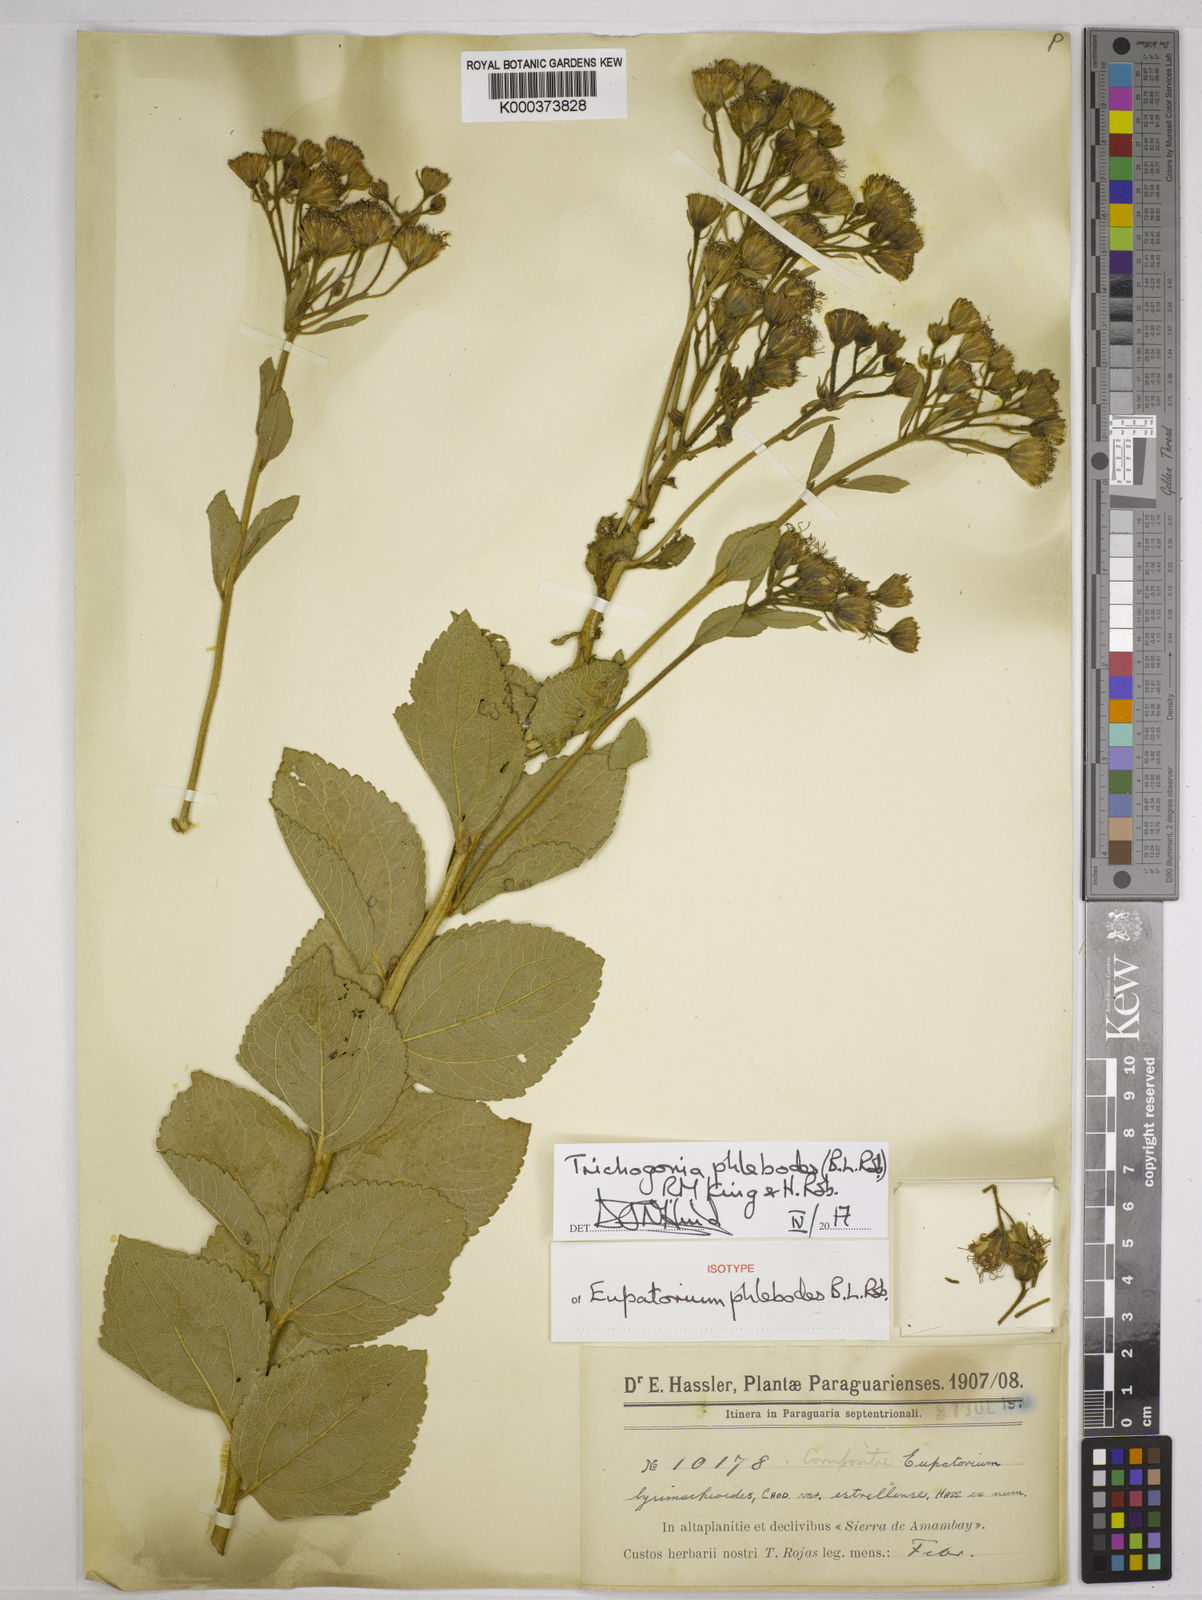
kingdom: Plantae
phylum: Tracheophyta
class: Magnoliopsida
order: Asterales
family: Asteraceae
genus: Trichogonia
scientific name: Trichogonia phlebodes
